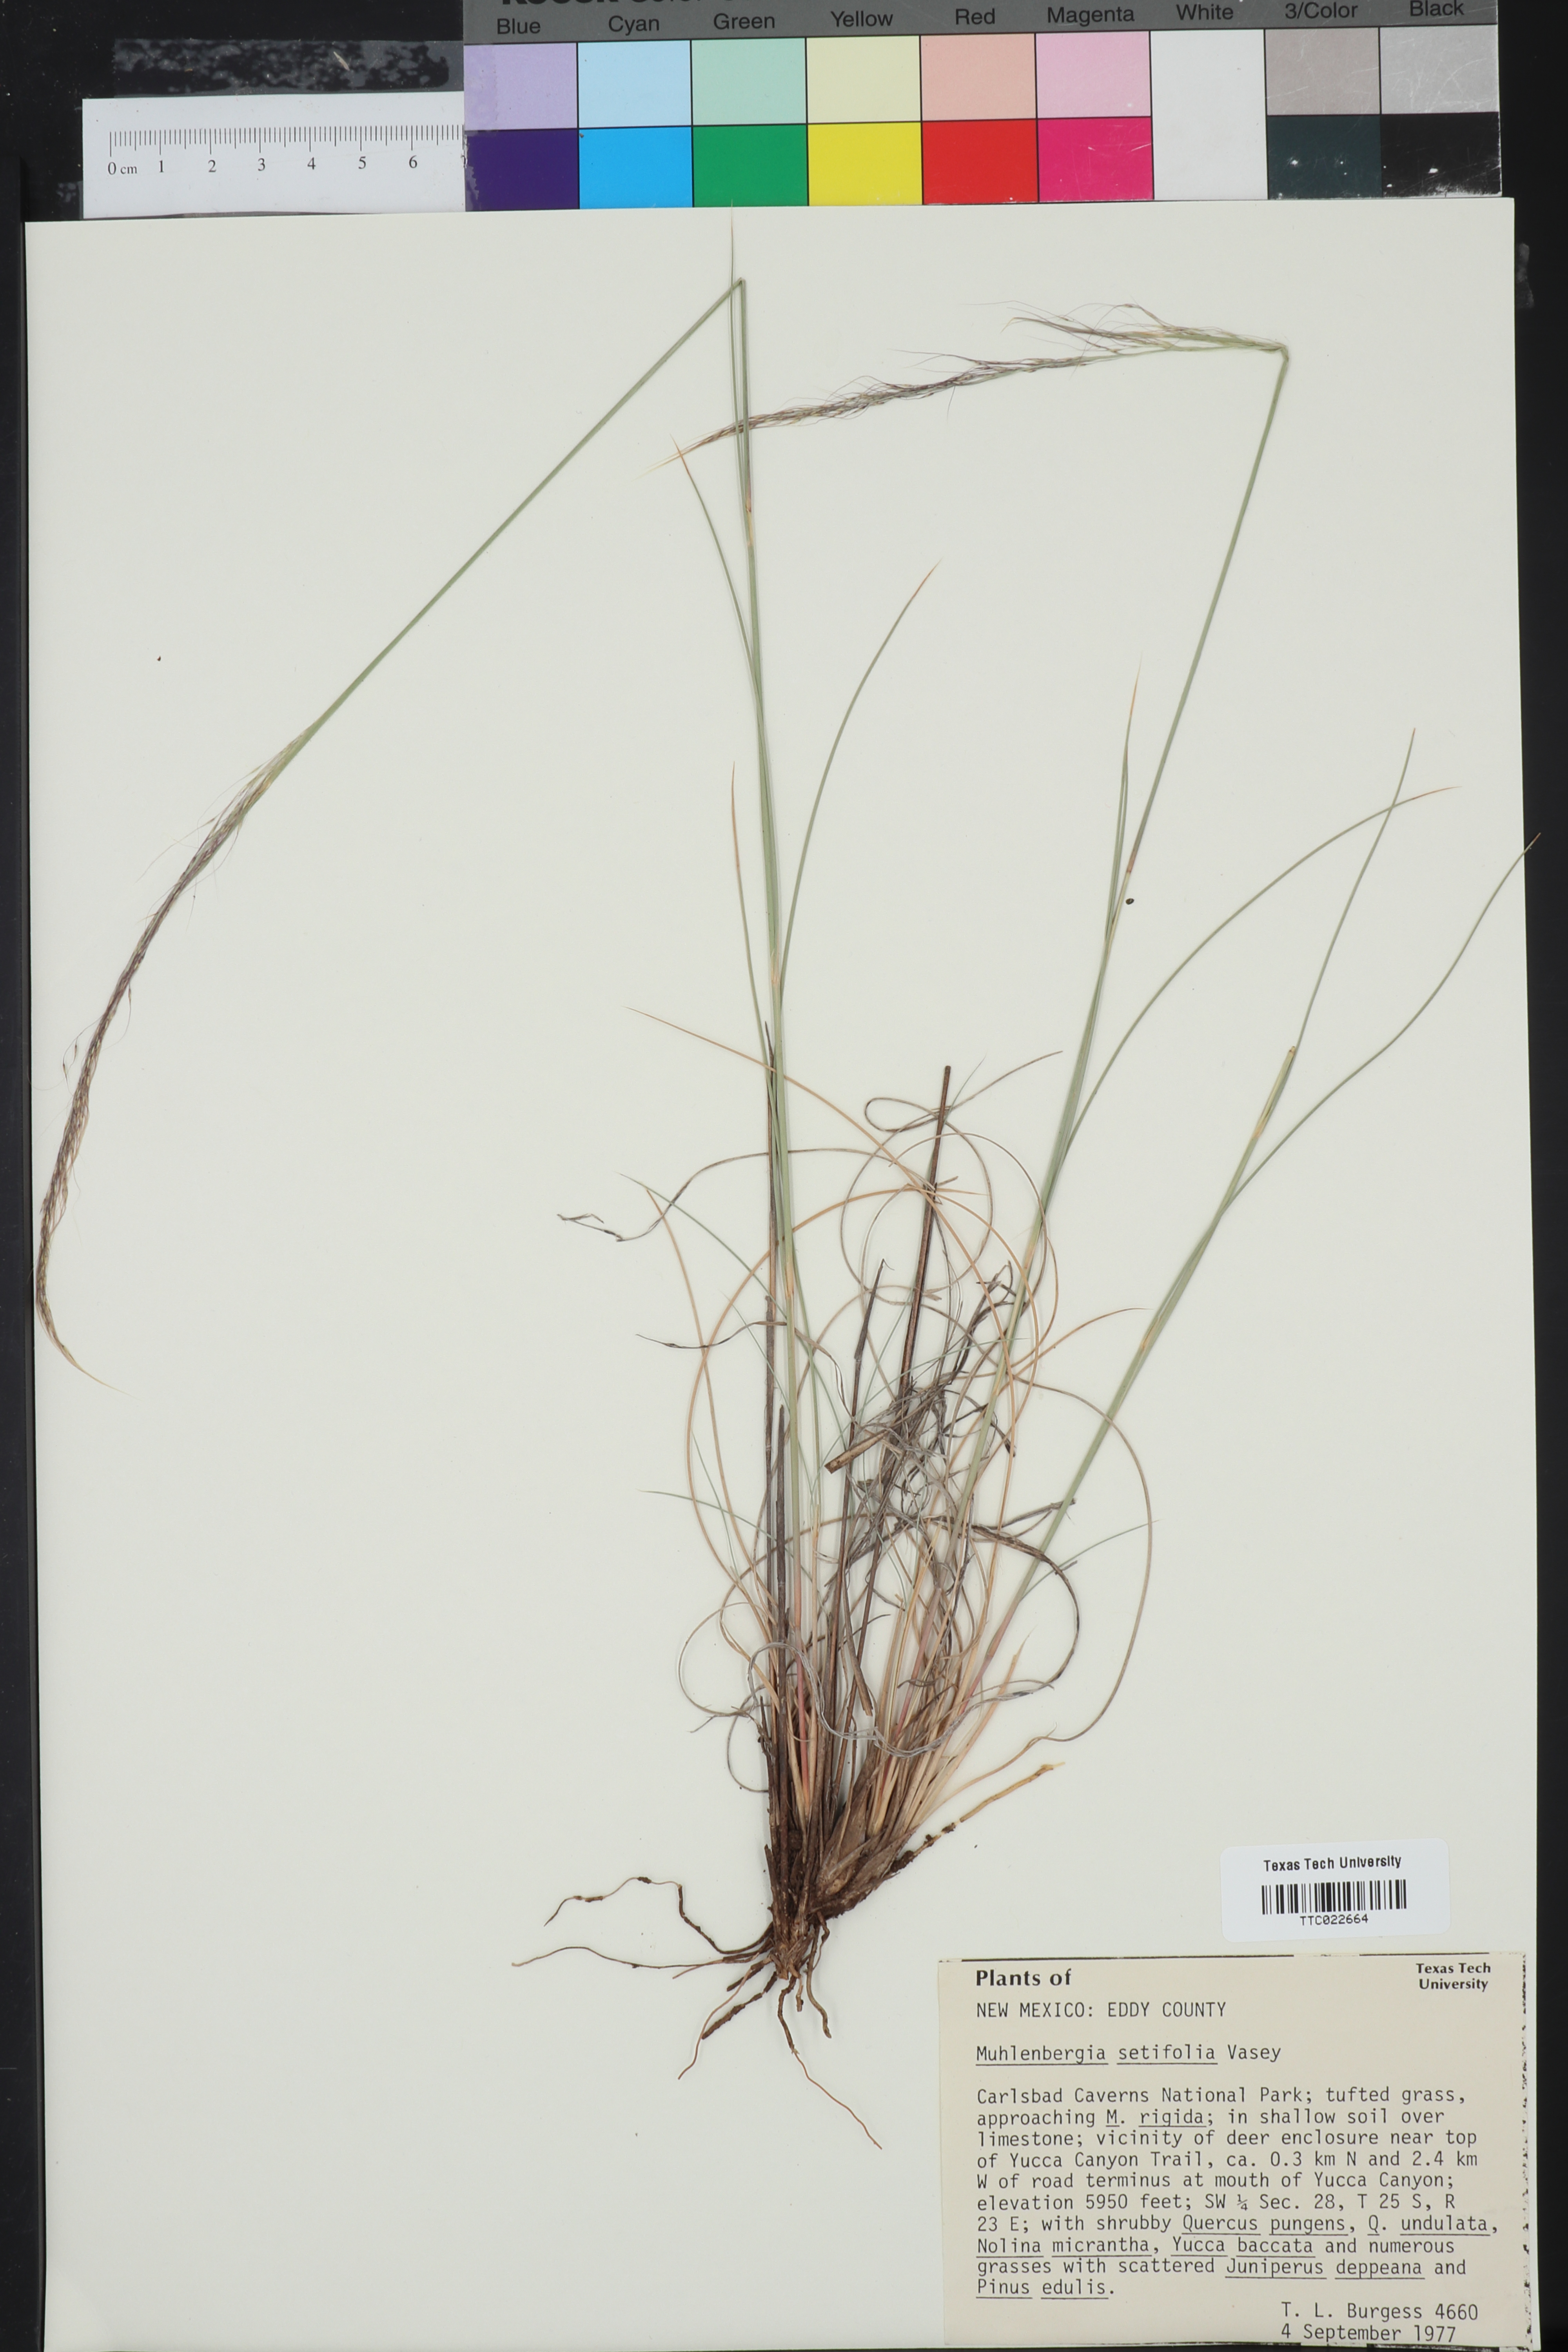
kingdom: Plantae
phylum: Tracheophyta
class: Liliopsida
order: Poales
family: Poaceae
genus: Muhlenbergia
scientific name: Muhlenbergia setifolia
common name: Curly-leaf muhly
